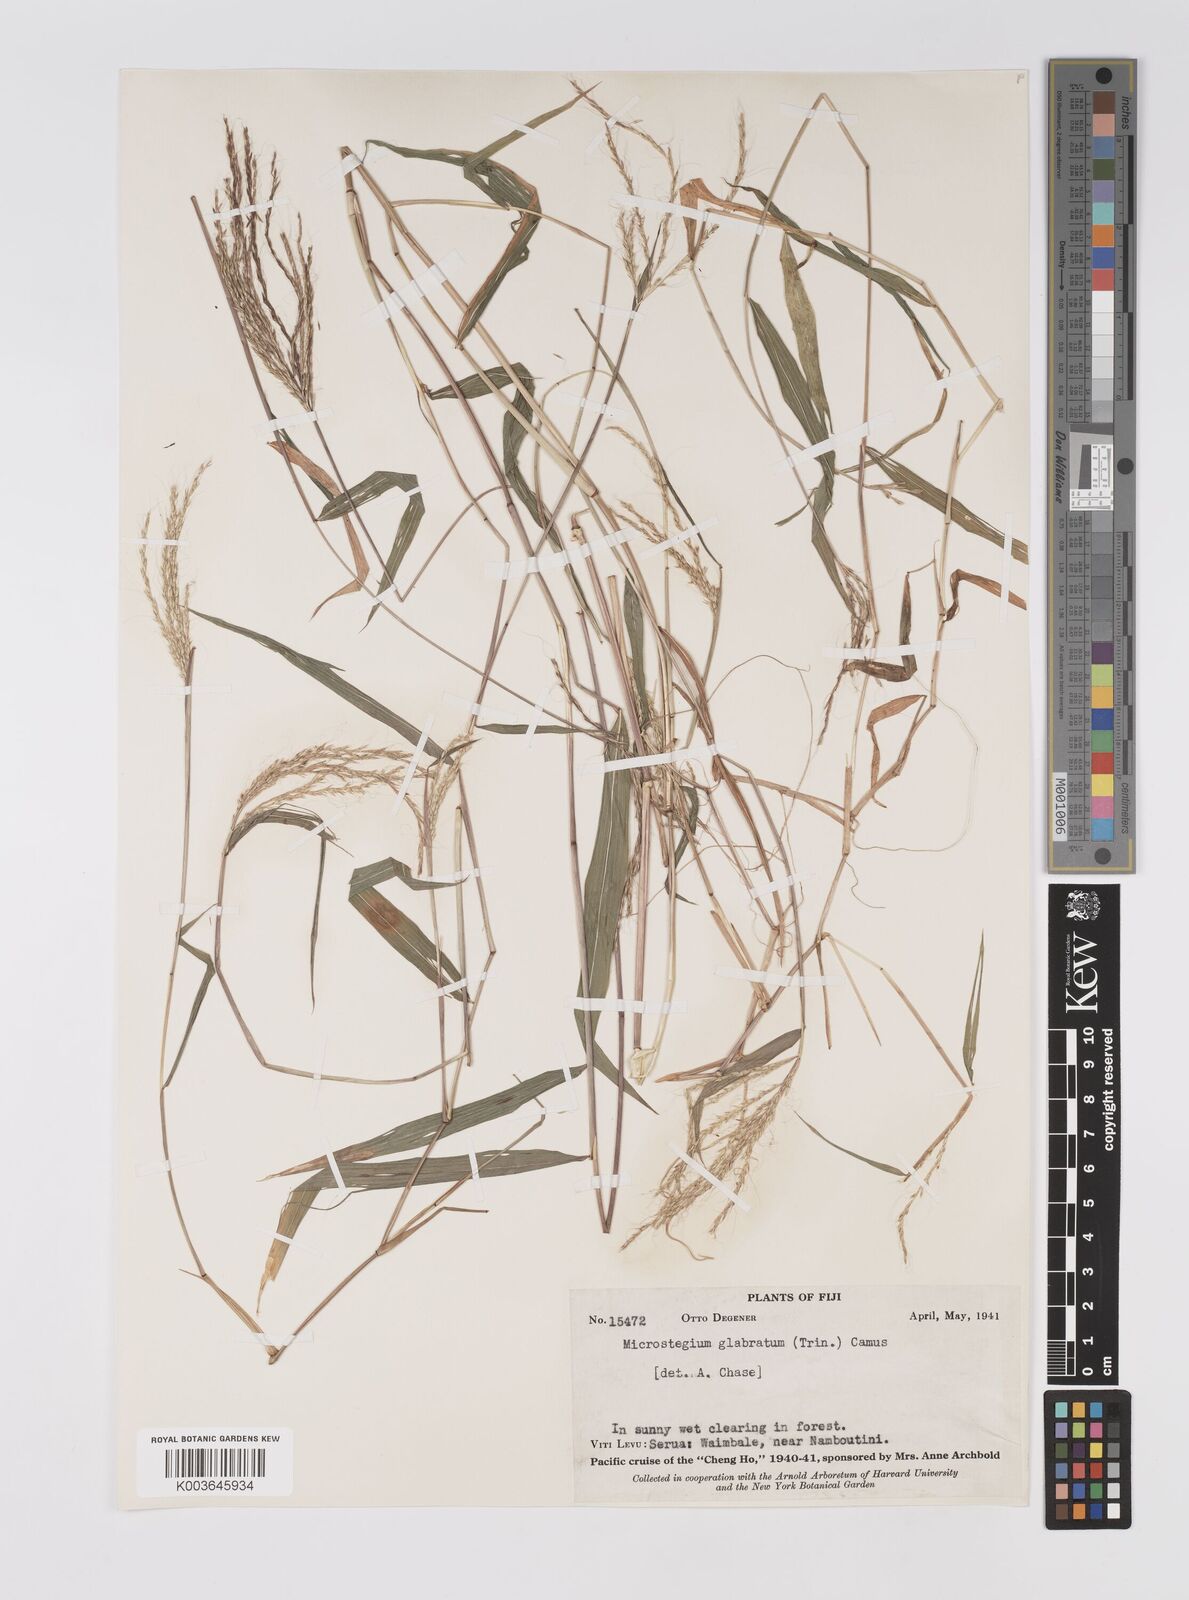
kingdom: Plantae
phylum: Tracheophyta
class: Liliopsida
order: Poales
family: Poaceae
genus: Microstegium
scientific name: Microstegium glabratum
